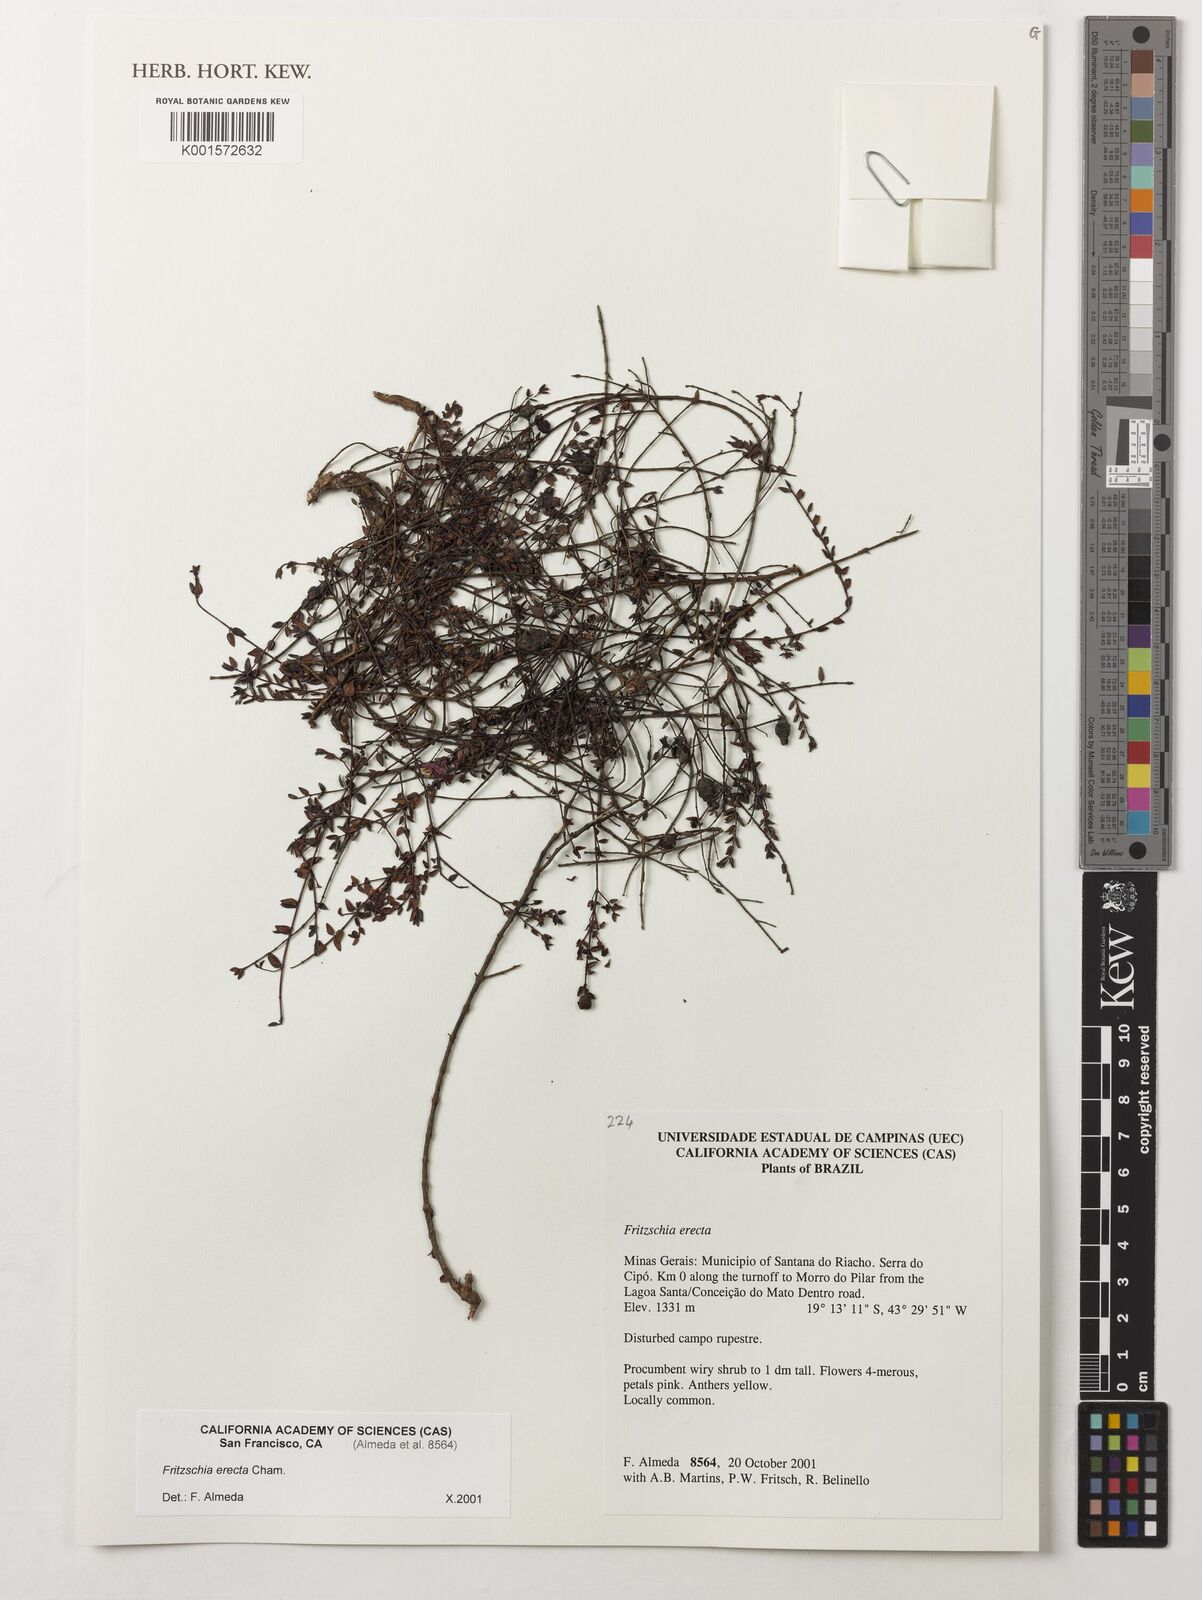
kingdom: Plantae
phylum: Tracheophyta
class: Magnoliopsida
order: Myrtales
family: Melastomataceae
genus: Fritzschia
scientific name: Fritzschia erecta
